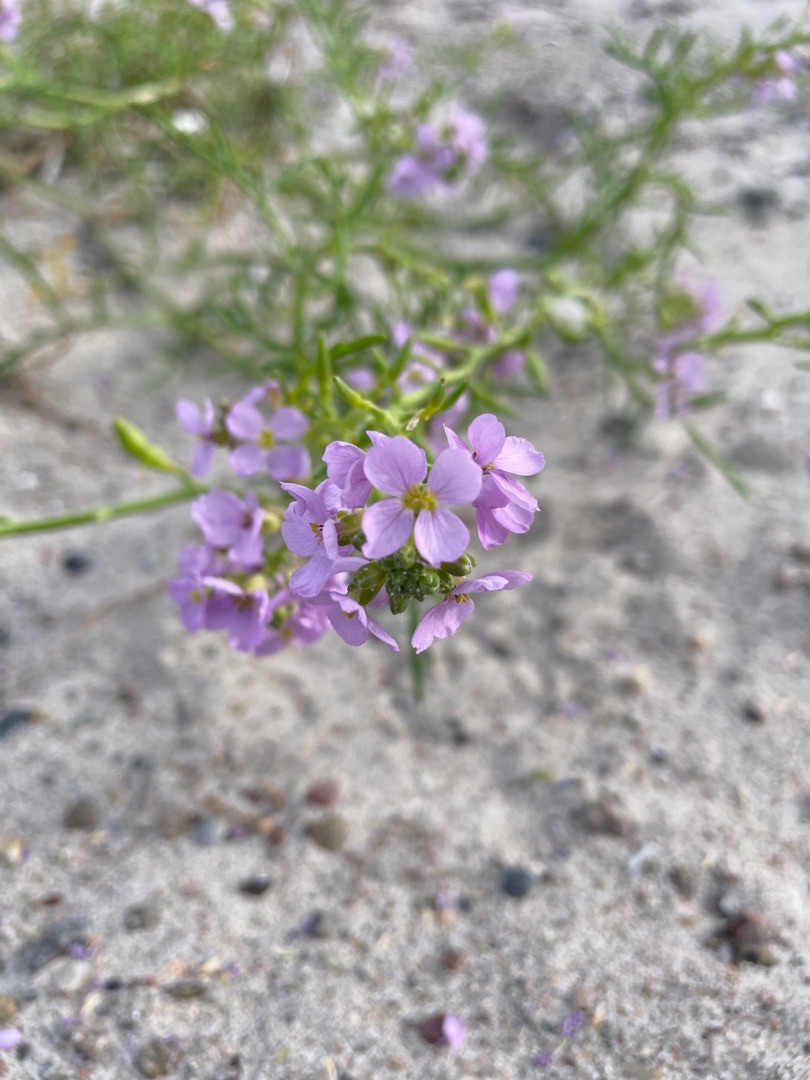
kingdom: Plantae
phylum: Tracheophyta
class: Magnoliopsida
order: Brassicales
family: Brassicaceae
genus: Cakile
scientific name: Cakile maritima
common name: Strandsennep
